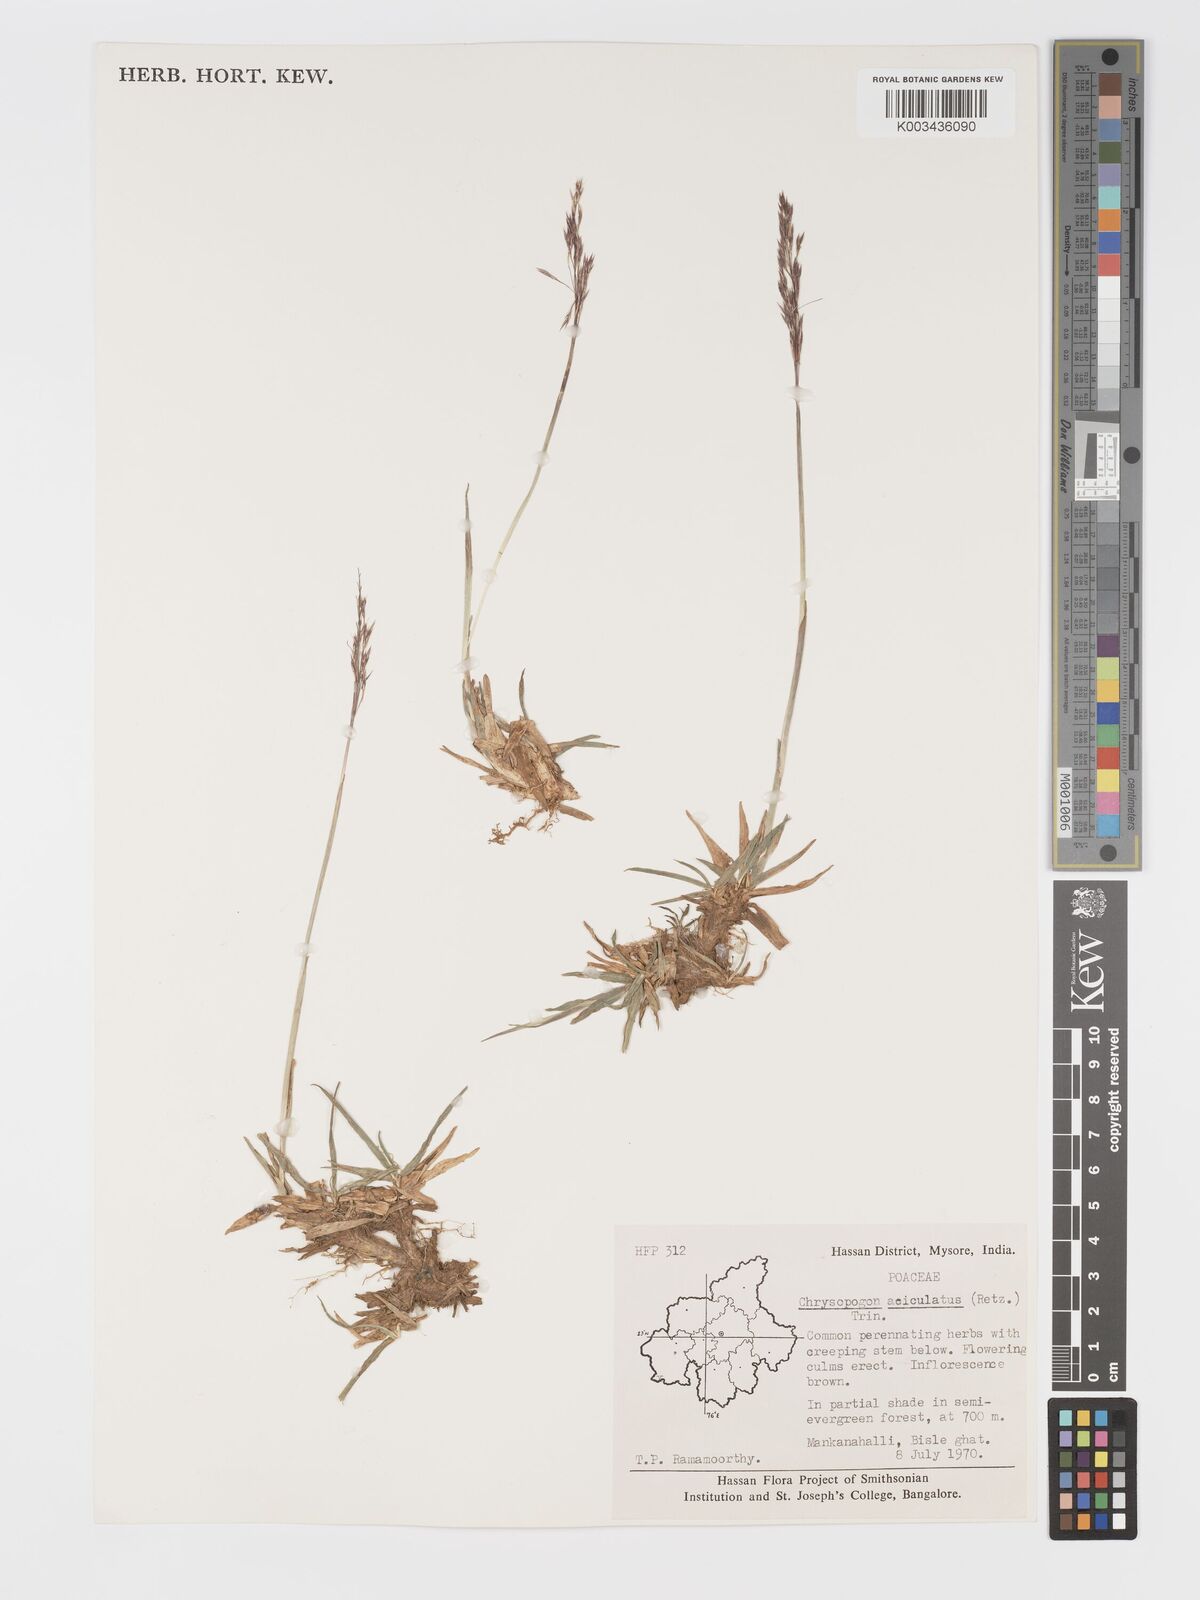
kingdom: Plantae
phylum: Tracheophyta
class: Liliopsida
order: Poales
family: Poaceae
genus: Chrysopogon
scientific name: Chrysopogon aciculatus
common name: Pilipiliula
